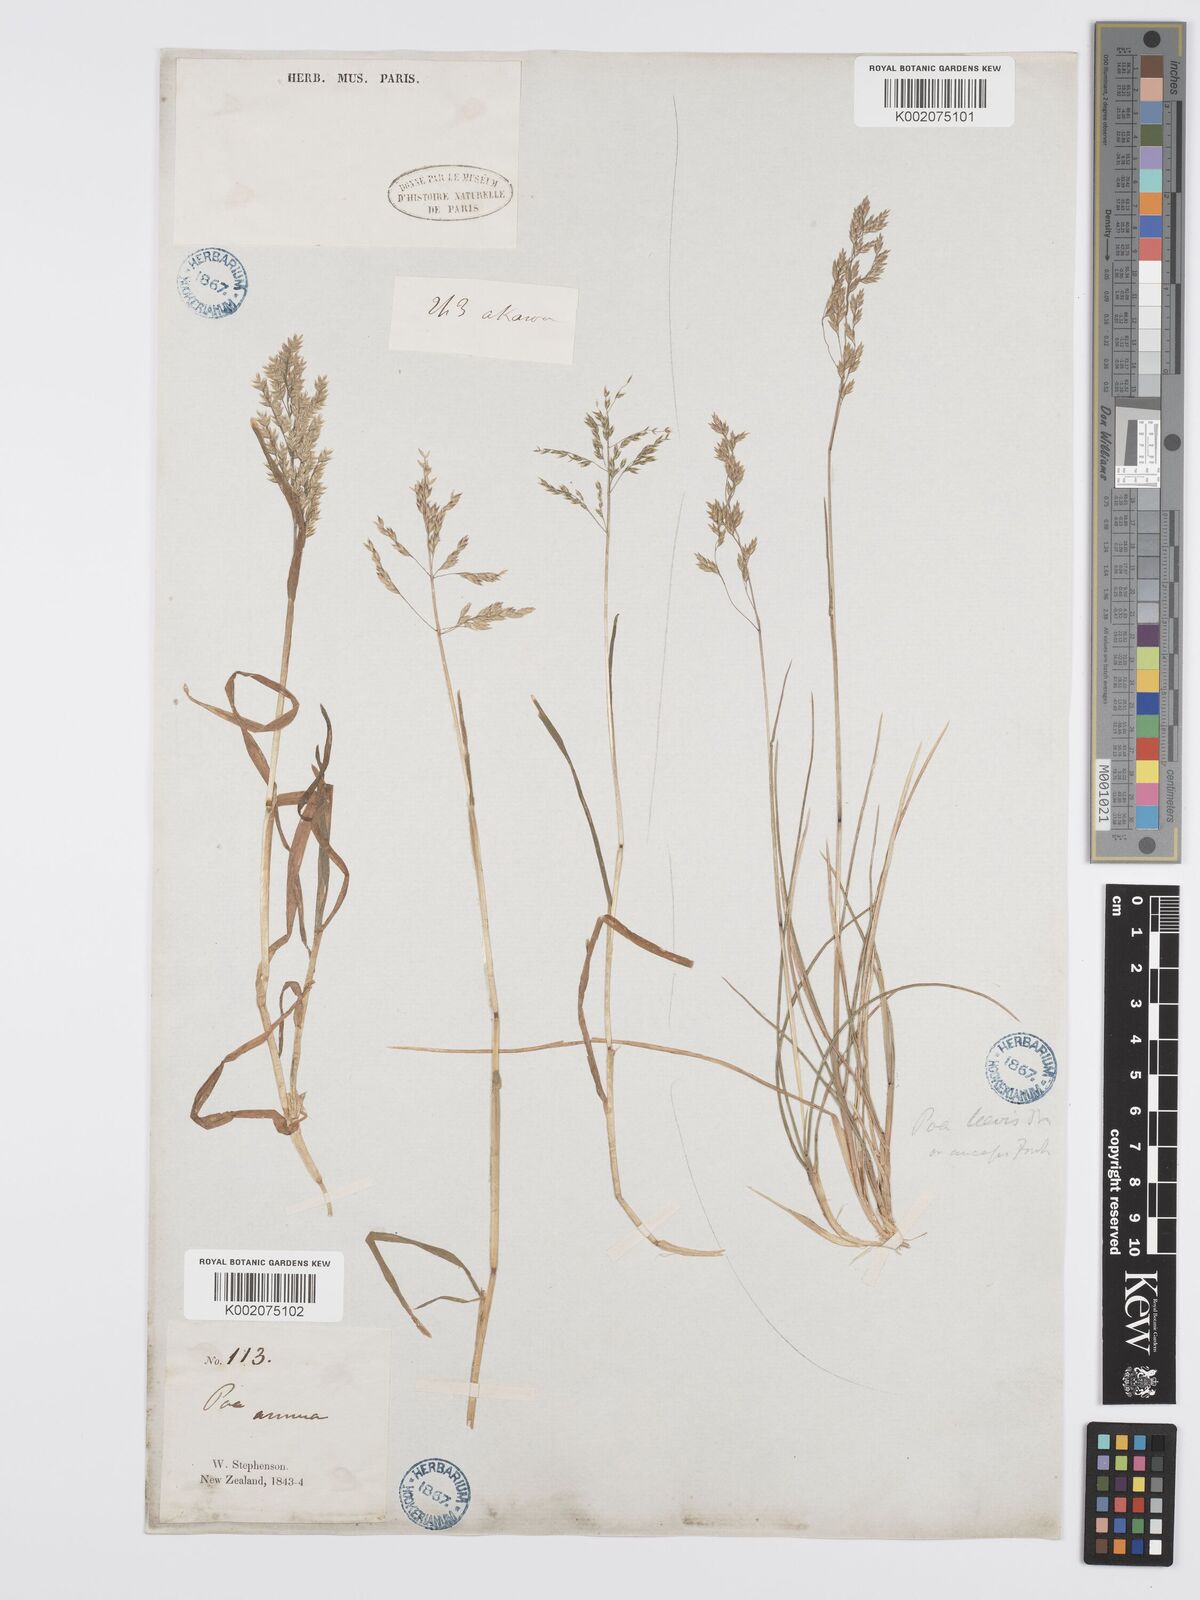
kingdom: Plantae
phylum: Tracheophyta
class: Liliopsida
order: Poales
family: Poaceae
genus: Poa
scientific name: Poa annua
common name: Annual bluegrass
